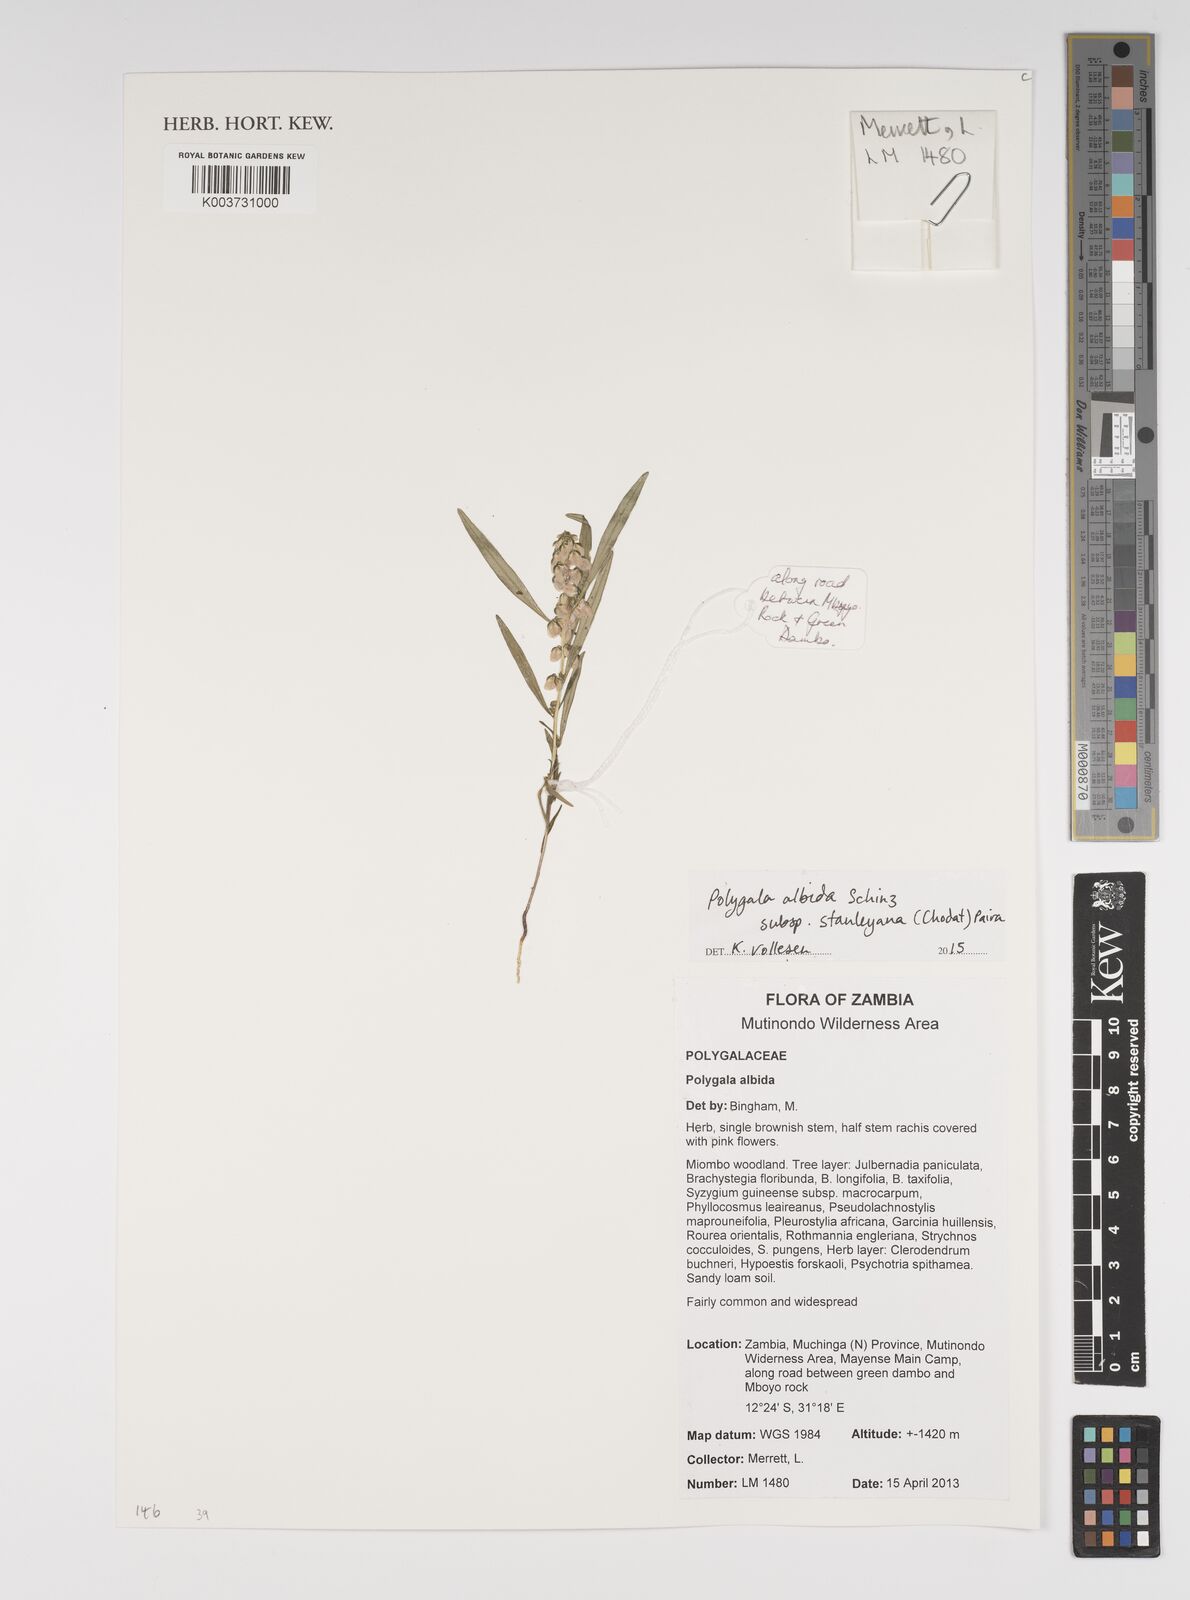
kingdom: Plantae
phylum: Tracheophyta
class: Magnoliopsida
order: Fabales
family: Polygalaceae
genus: Polygala
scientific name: Polygala albida
